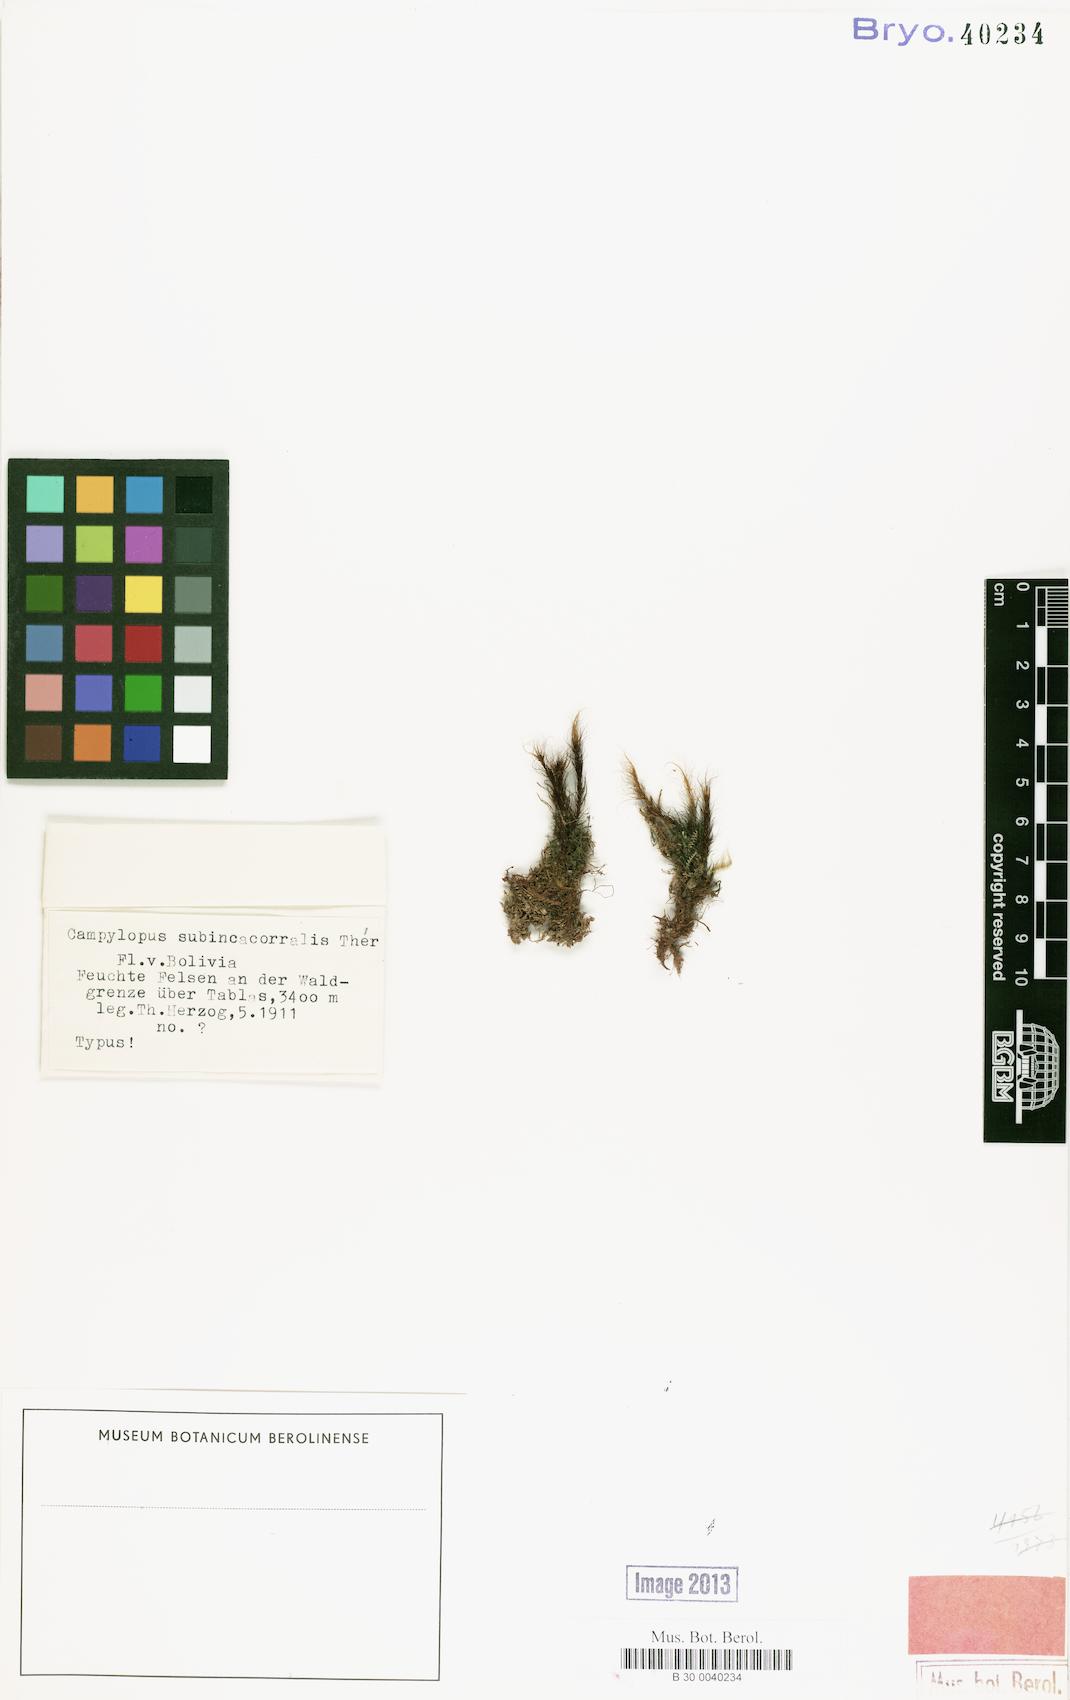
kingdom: Plantae
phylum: Bryophyta
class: Bryopsida
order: Dicranales
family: Leucobryaceae
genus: Campylopus
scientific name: Campylopus anderssonii
